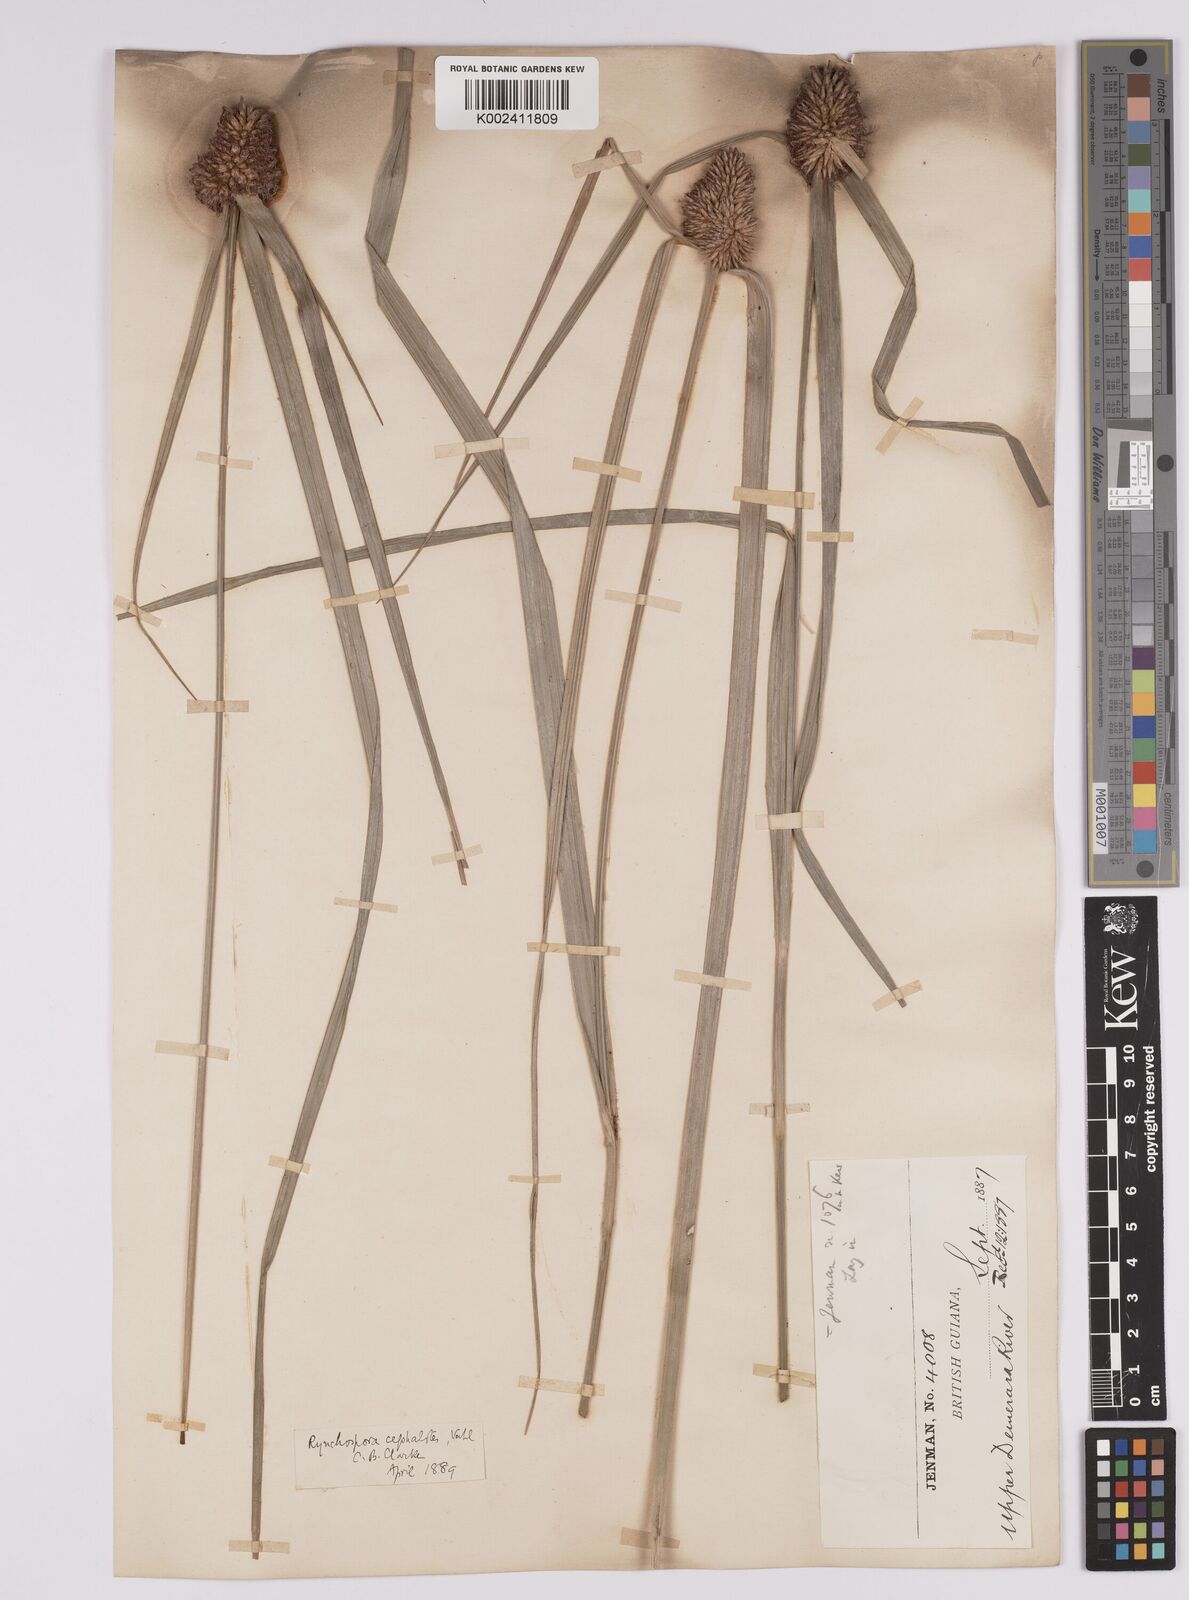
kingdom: Plantae
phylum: Tracheophyta
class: Liliopsida
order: Poales
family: Cyperaceae
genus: Rhynchospora
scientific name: Rhynchospora cephalotes
